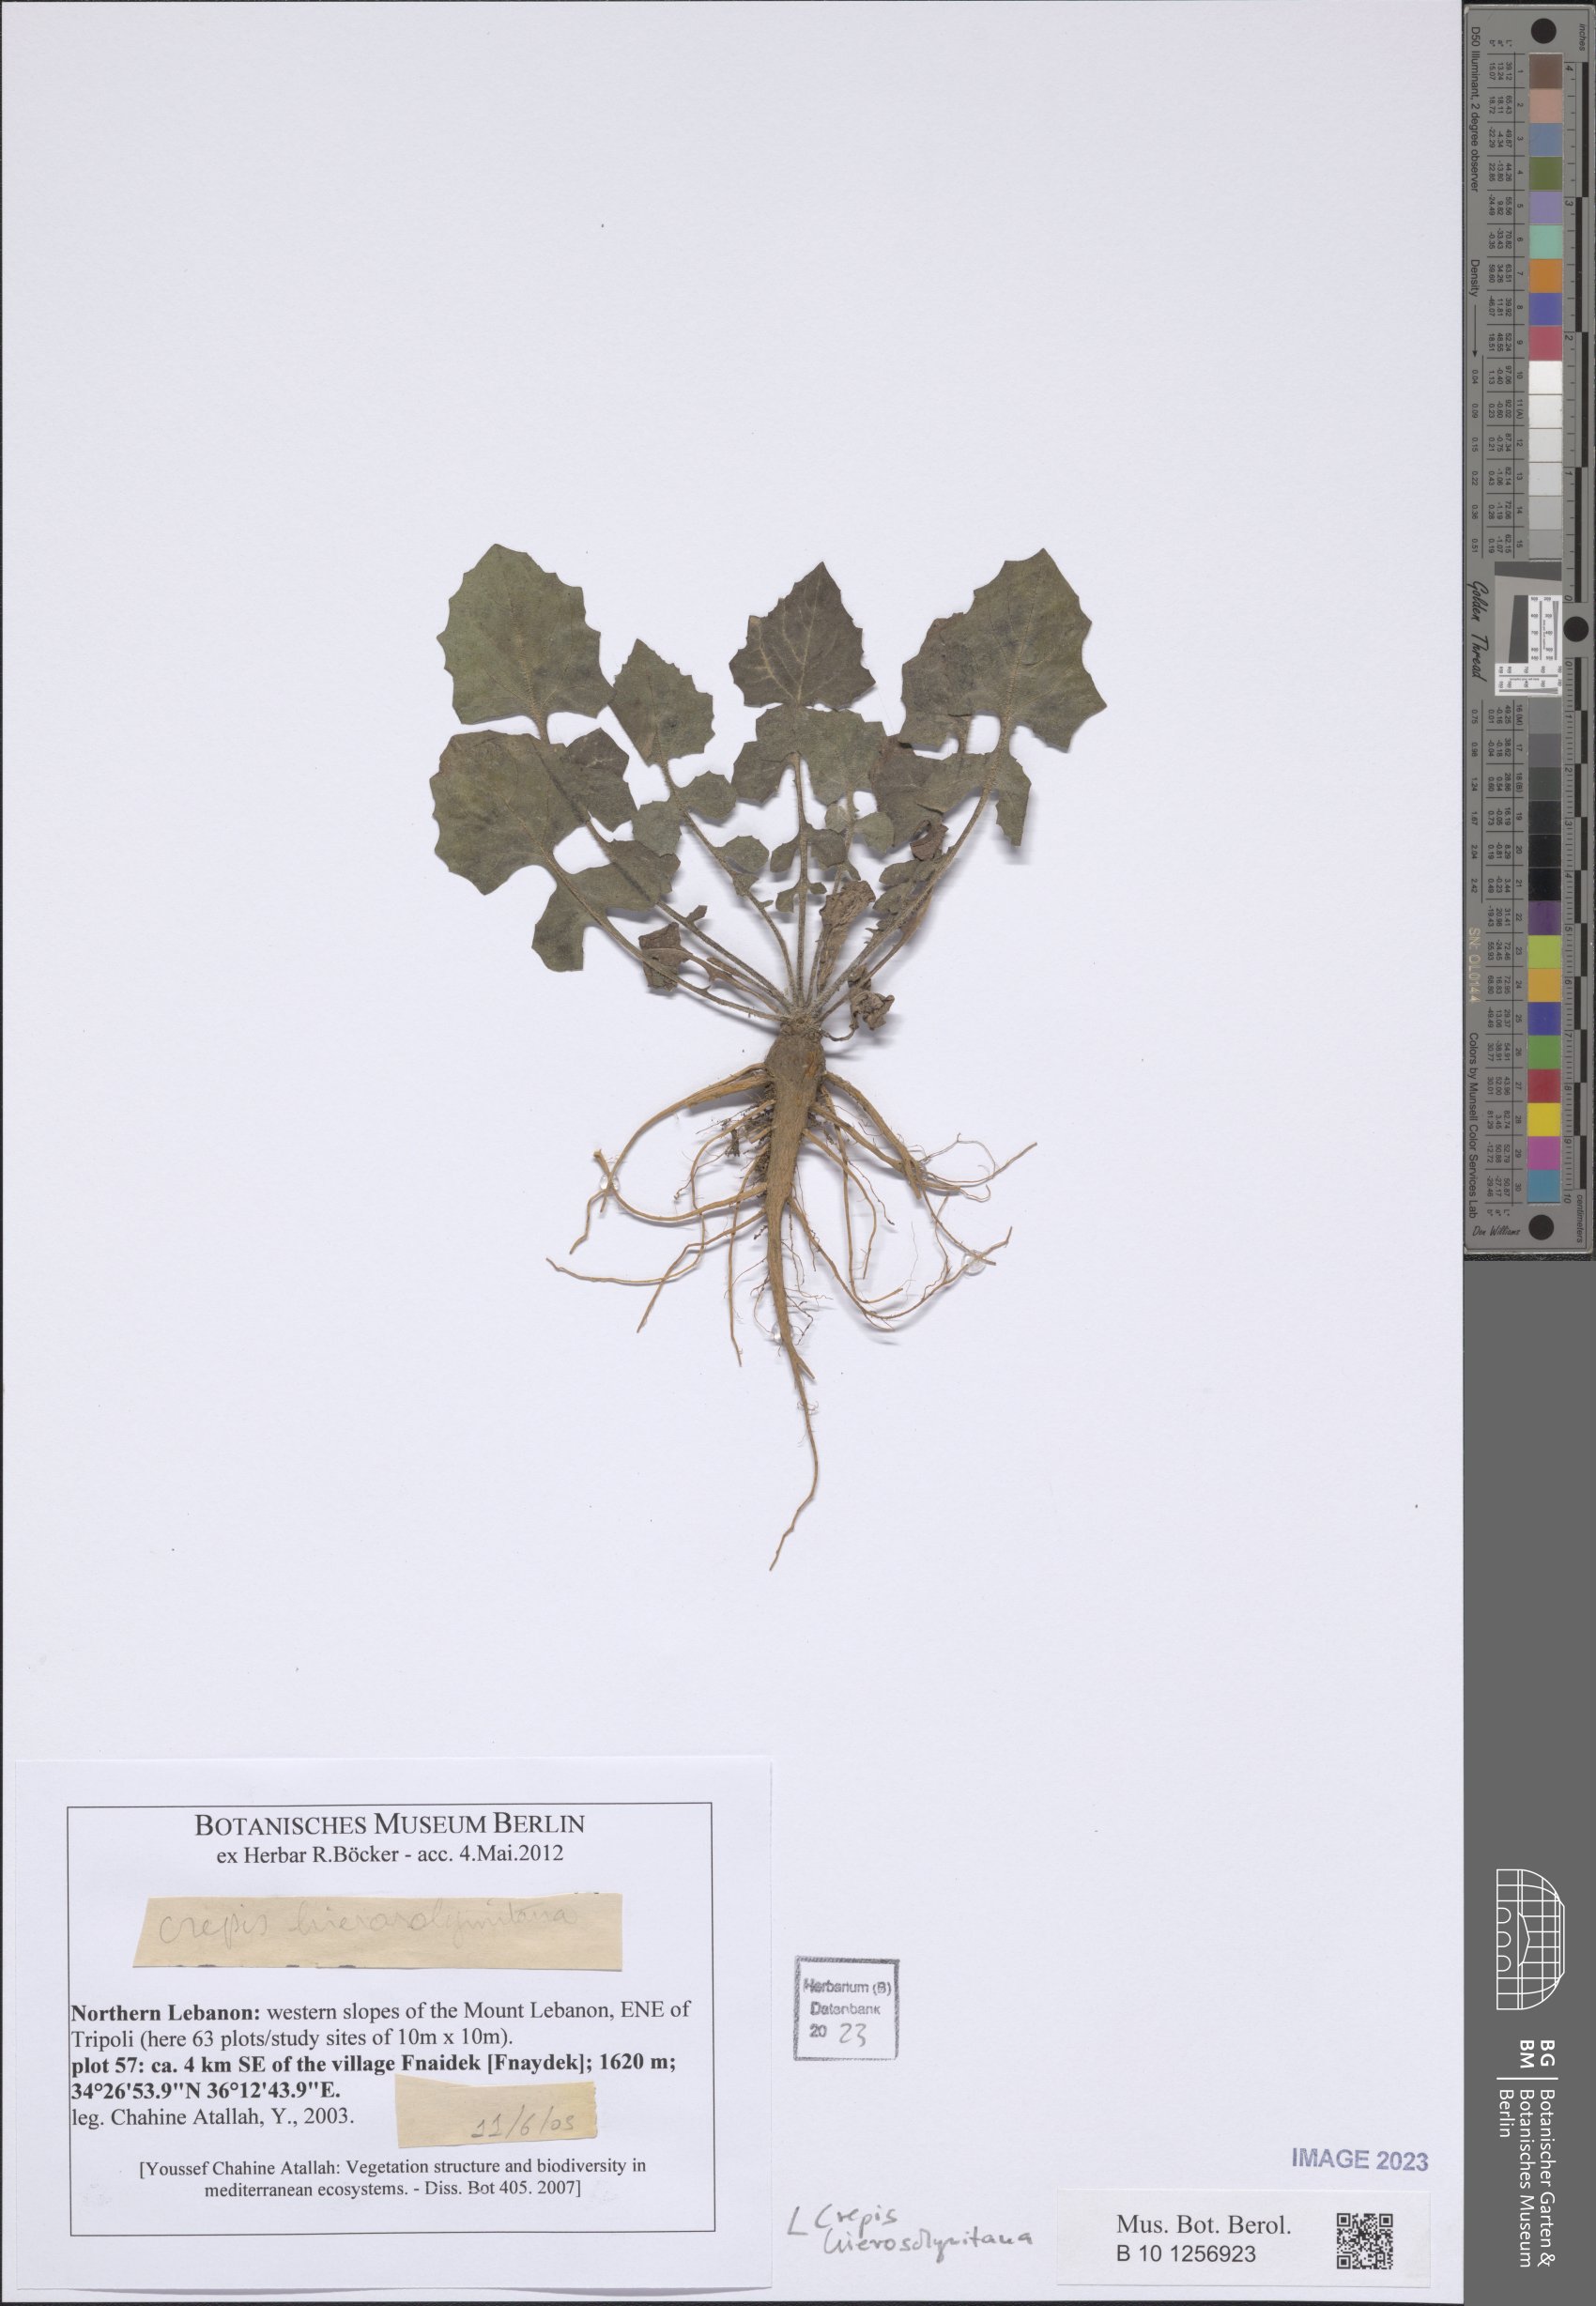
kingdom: Plantae
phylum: Tracheophyta
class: Magnoliopsida
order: Asterales
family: Asteraceae
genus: Crepis
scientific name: Crepis hierosolymitana
